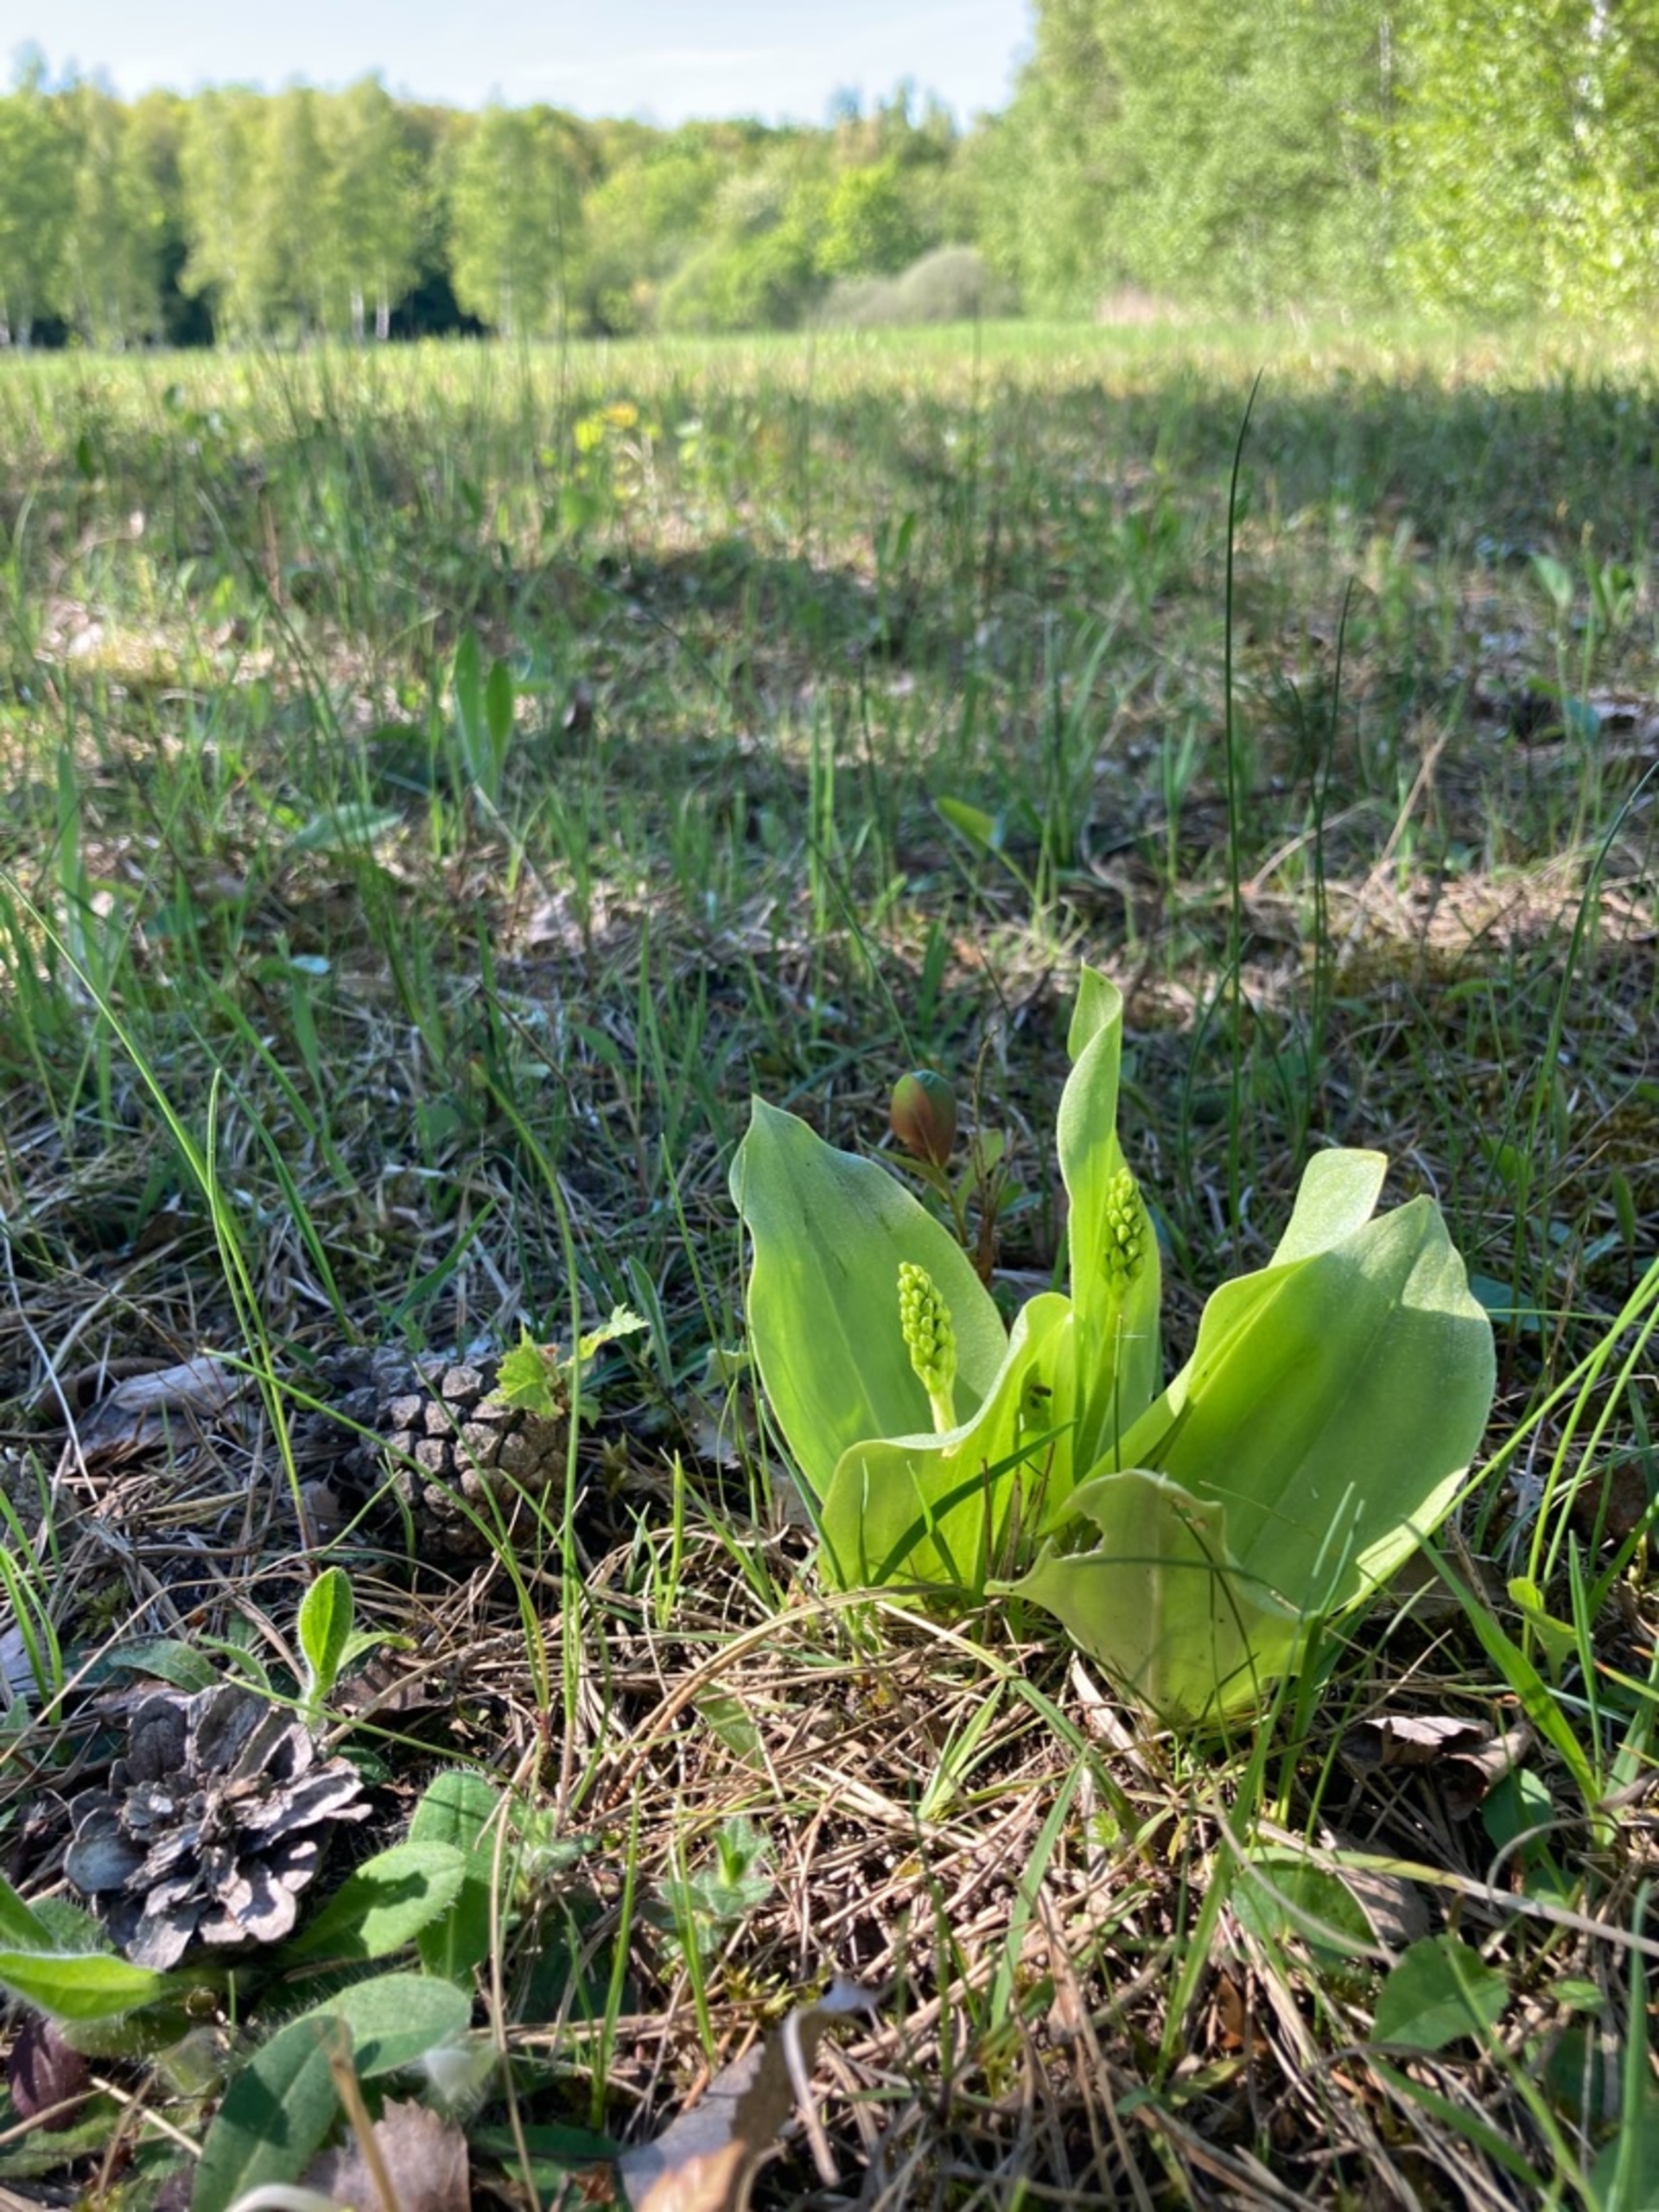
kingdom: Plantae
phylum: Tracheophyta
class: Liliopsida
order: Asparagales
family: Orchidaceae
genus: Neottia
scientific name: Neottia ovata
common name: Ægbladet fliglæbe
